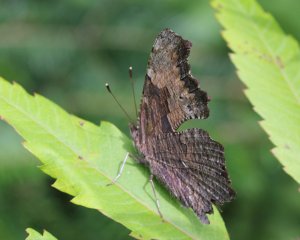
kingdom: Animalia
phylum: Arthropoda
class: Insecta
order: Lepidoptera
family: Nymphalidae
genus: Polygonia
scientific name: Polygonia progne
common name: Gray Comma
